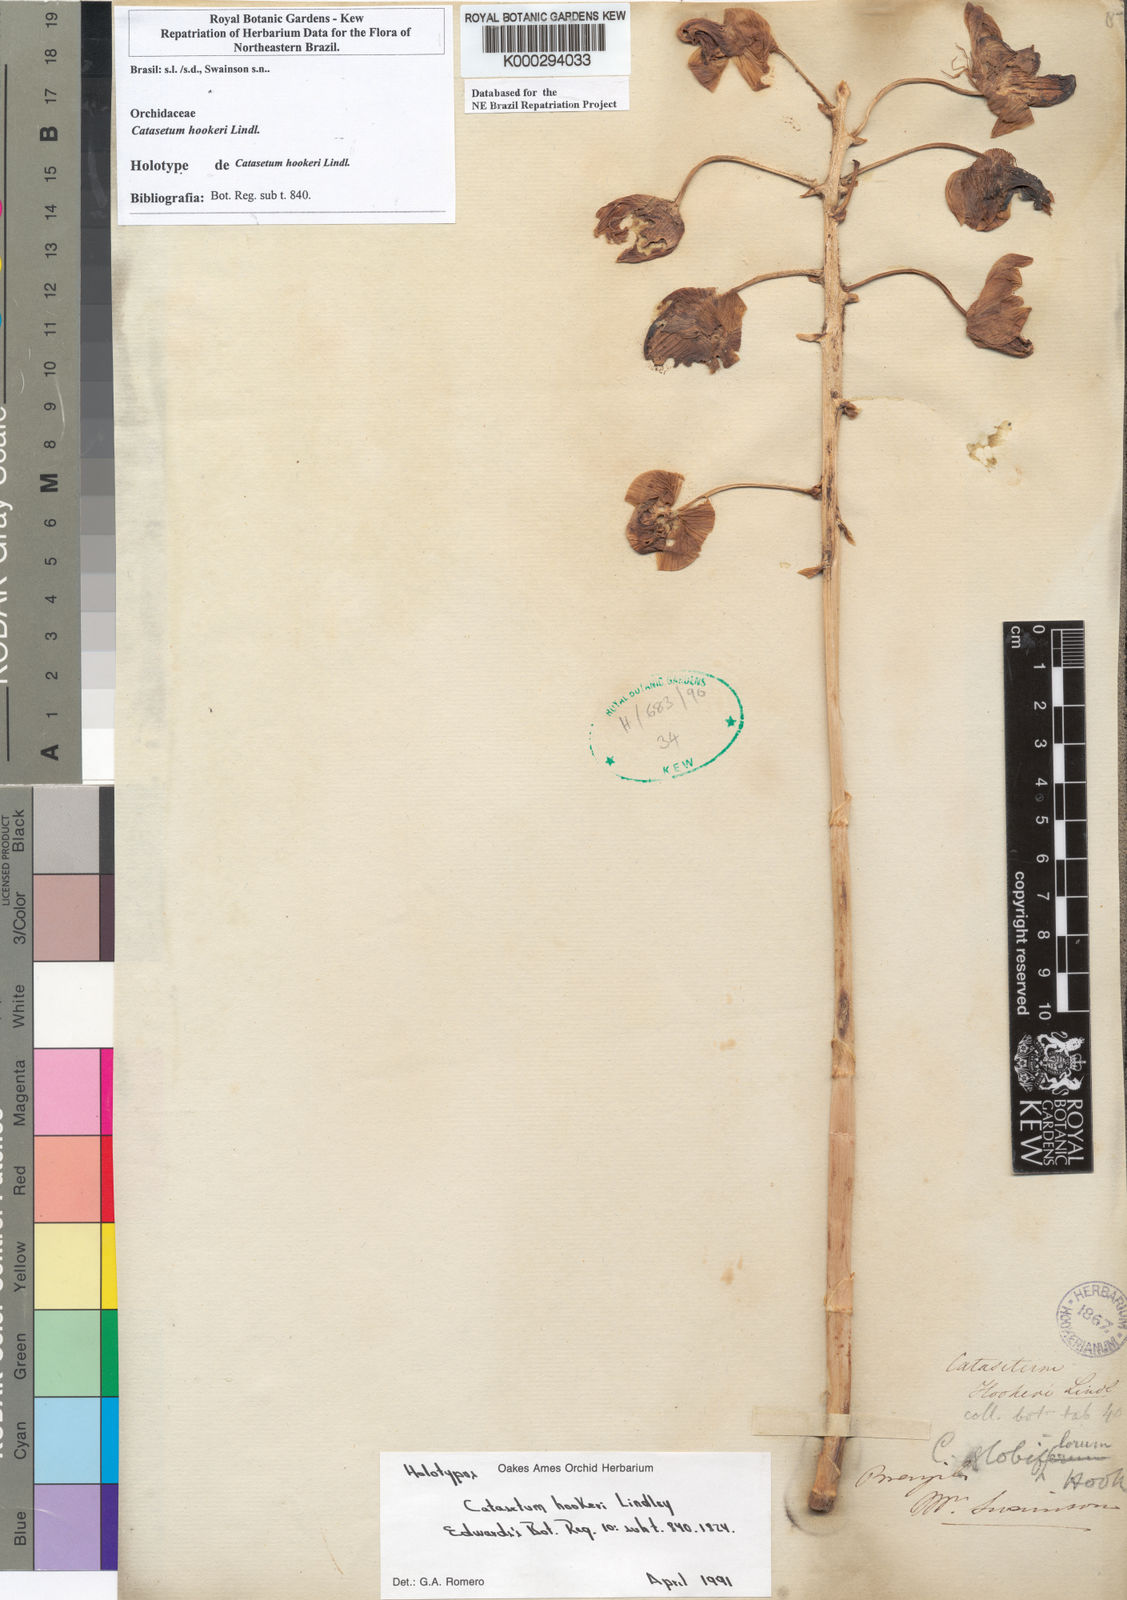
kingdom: Plantae
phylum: Tracheophyta
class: Liliopsida
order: Asparagales
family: Orchidaceae
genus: Catasetum
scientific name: Catasetum hookeri
